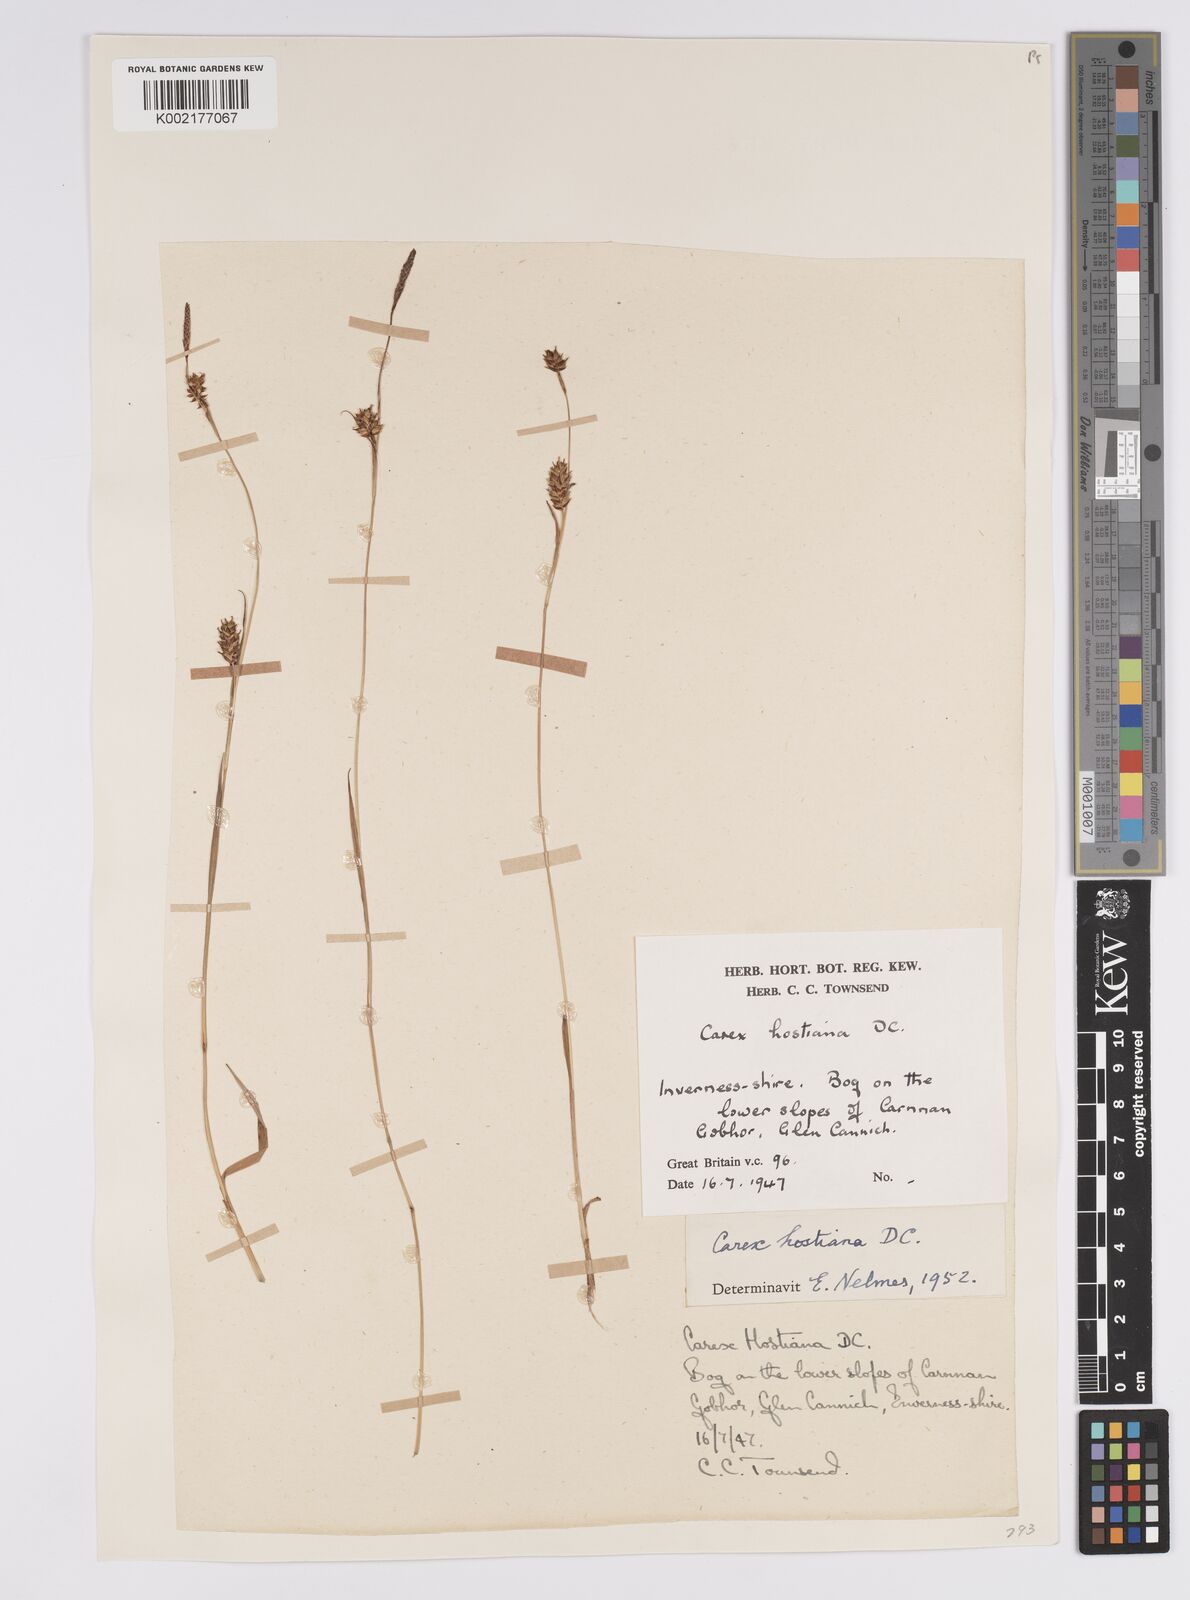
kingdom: Plantae
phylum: Tracheophyta
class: Liliopsida
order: Poales
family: Cyperaceae
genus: Carex
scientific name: Carex hostiana
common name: Tawny sedge
